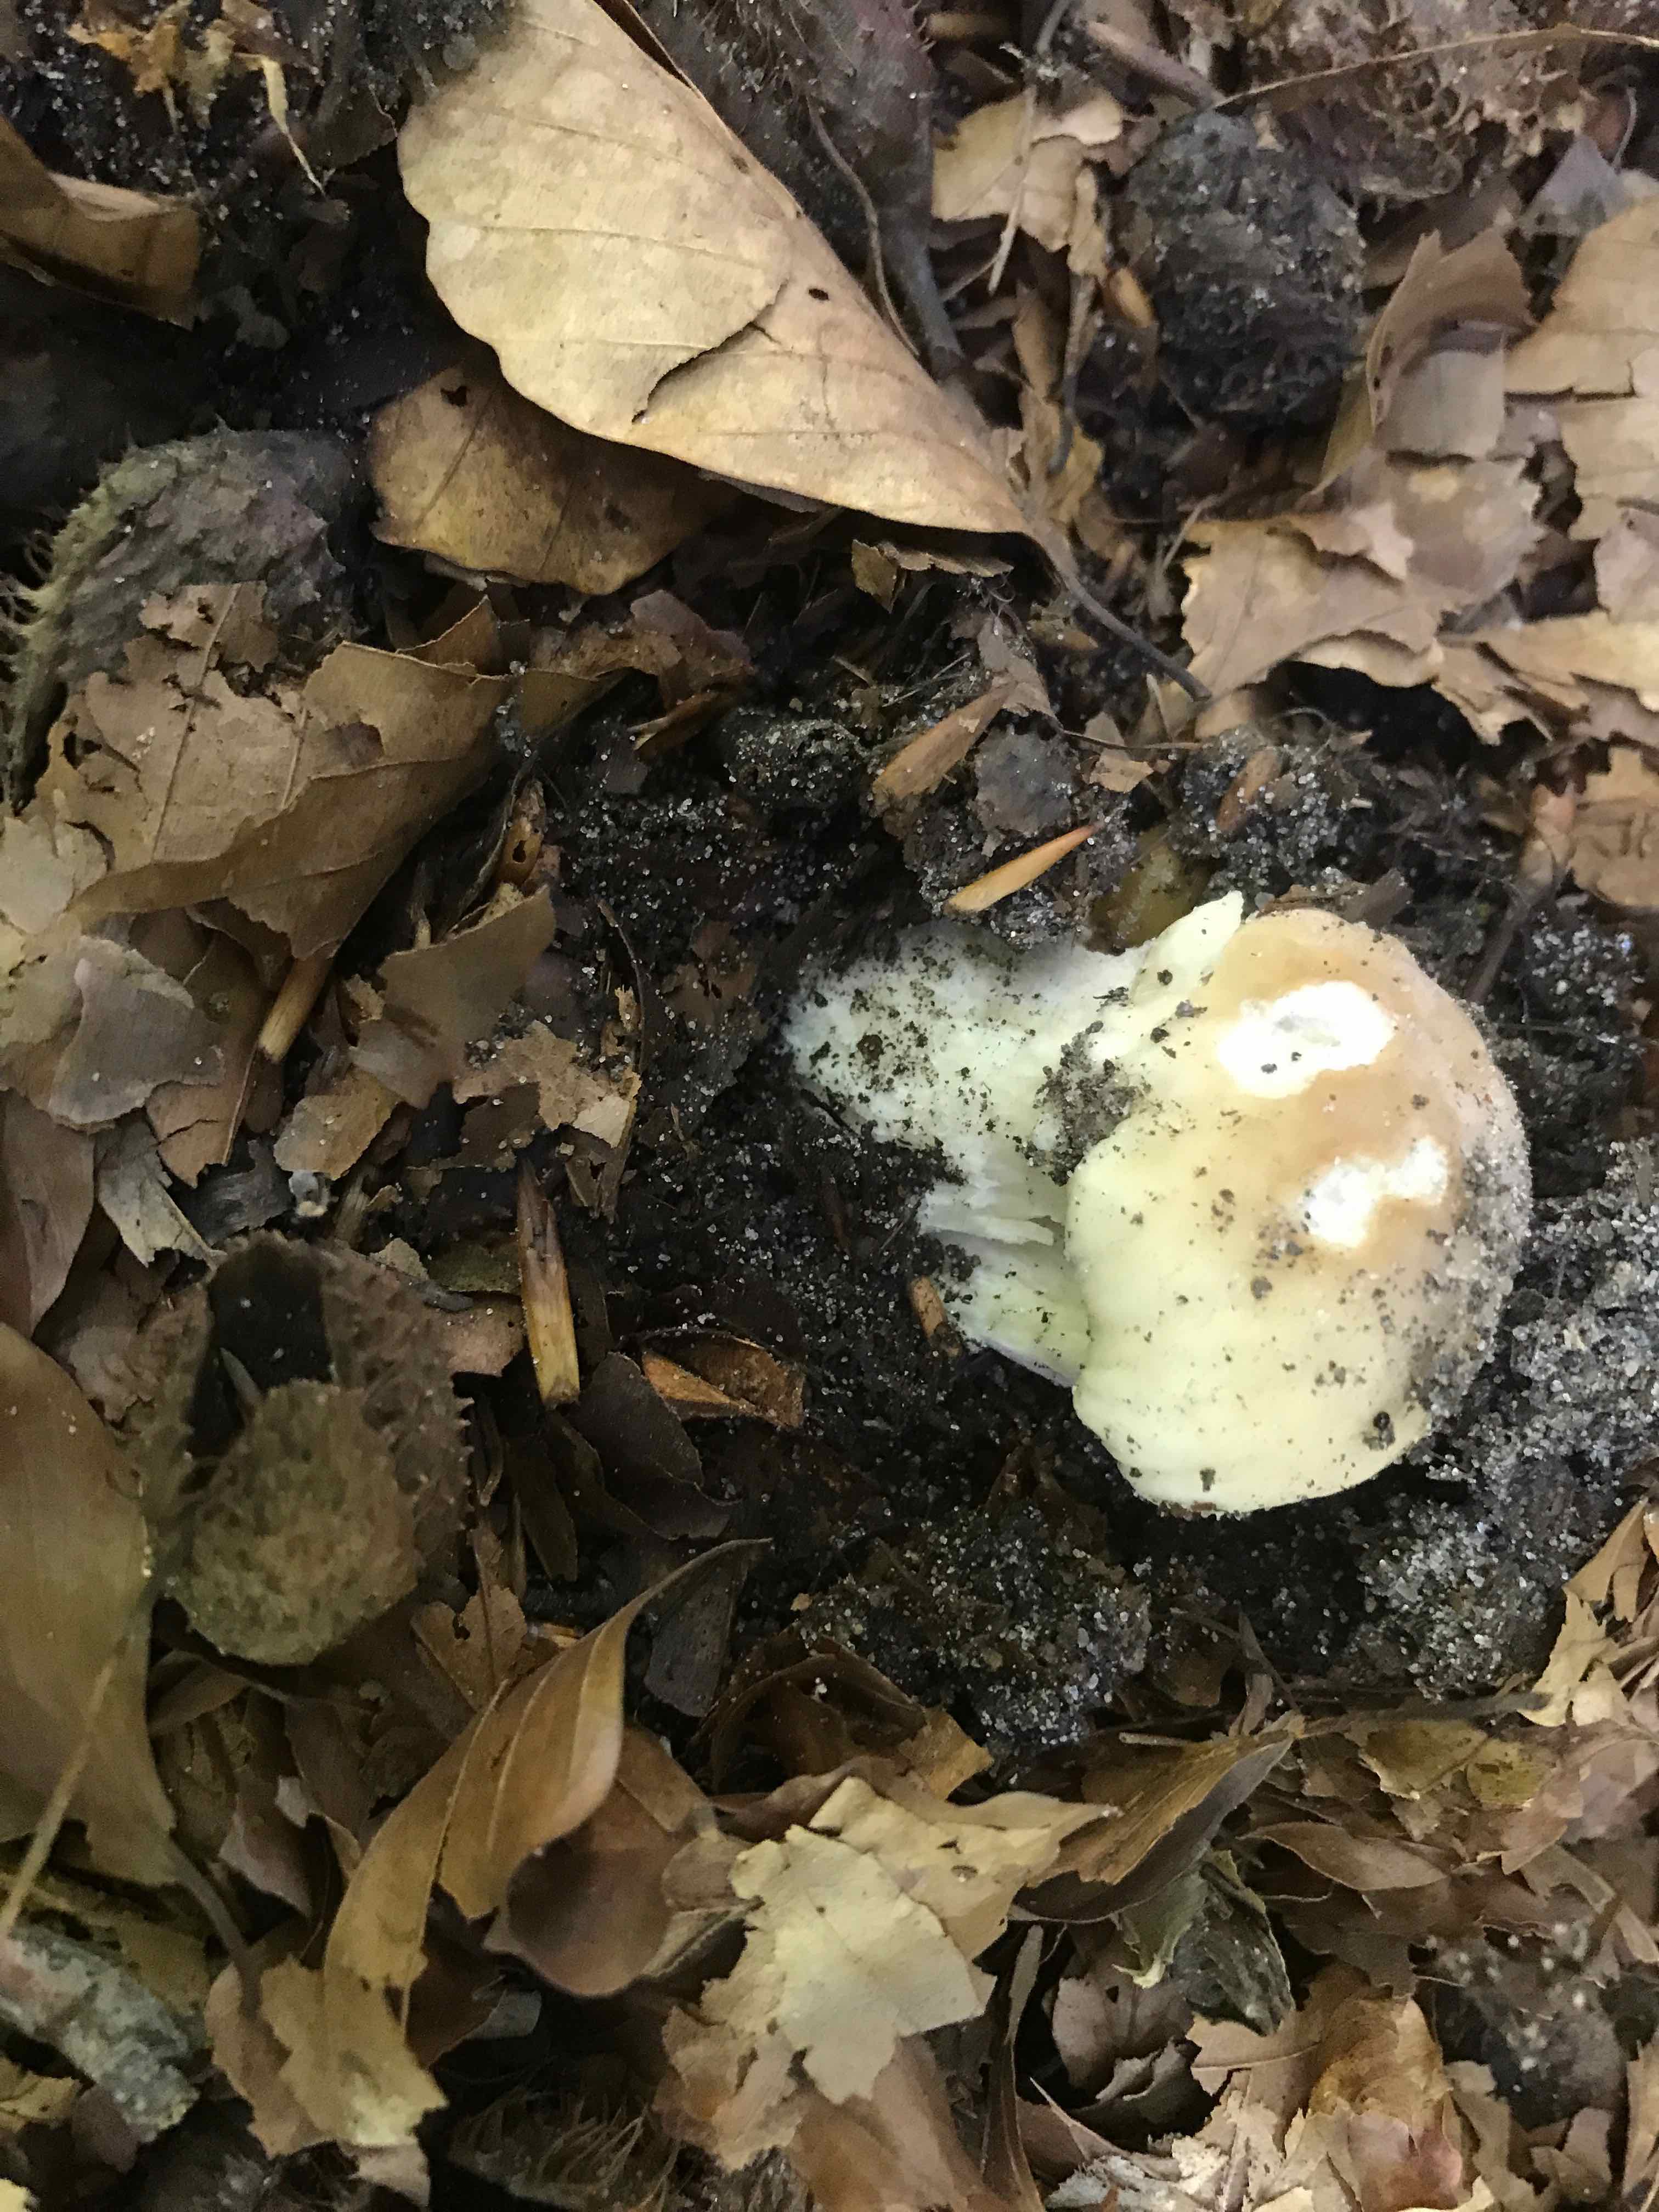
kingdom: Fungi
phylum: Basidiomycota
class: Agaricomycetes
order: Boletales
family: Boletaceae
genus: Boletus
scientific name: Boletus edulis
